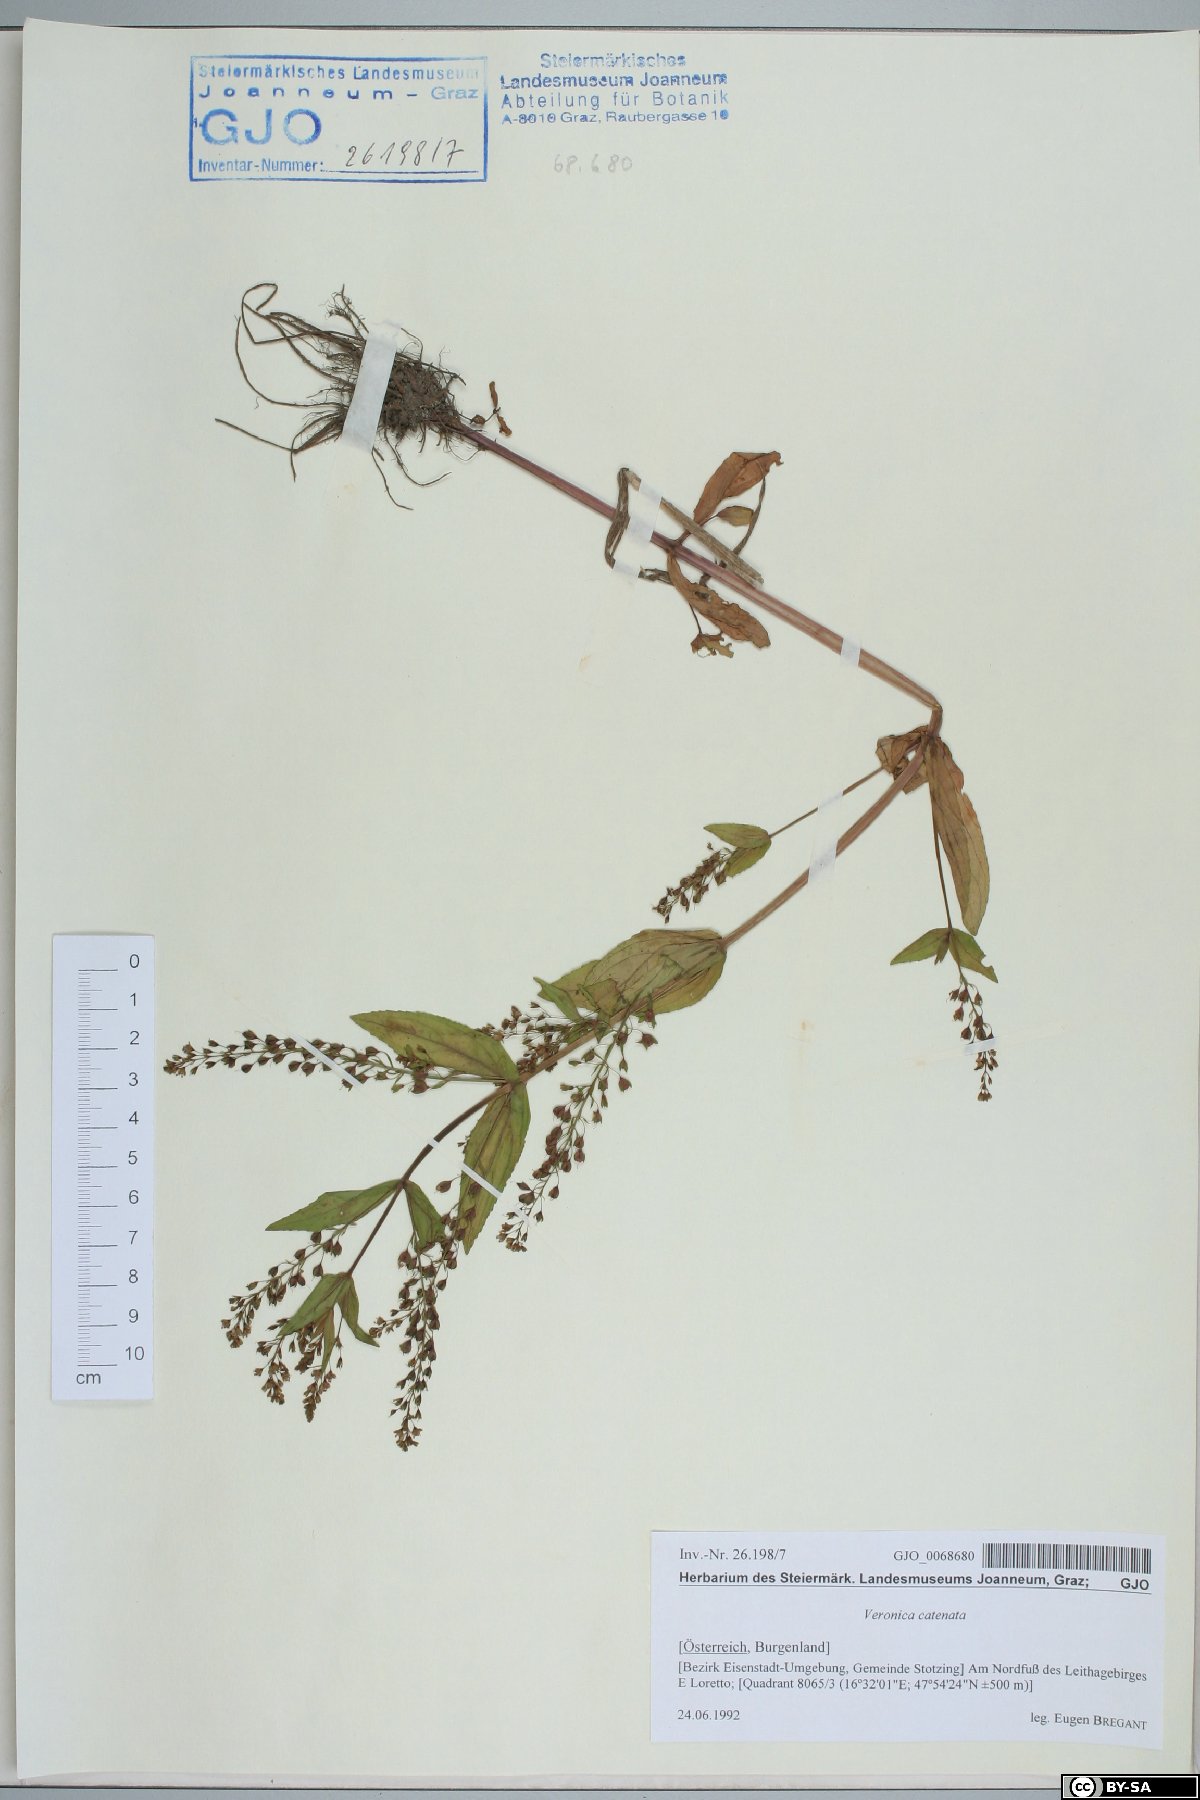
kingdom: Plantae
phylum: Tracheophyta
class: Magnoliopsida
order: Lamiales
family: Plantaginaceae
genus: Veronica
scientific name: Veronica catenata
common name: Pink water-speedwell
